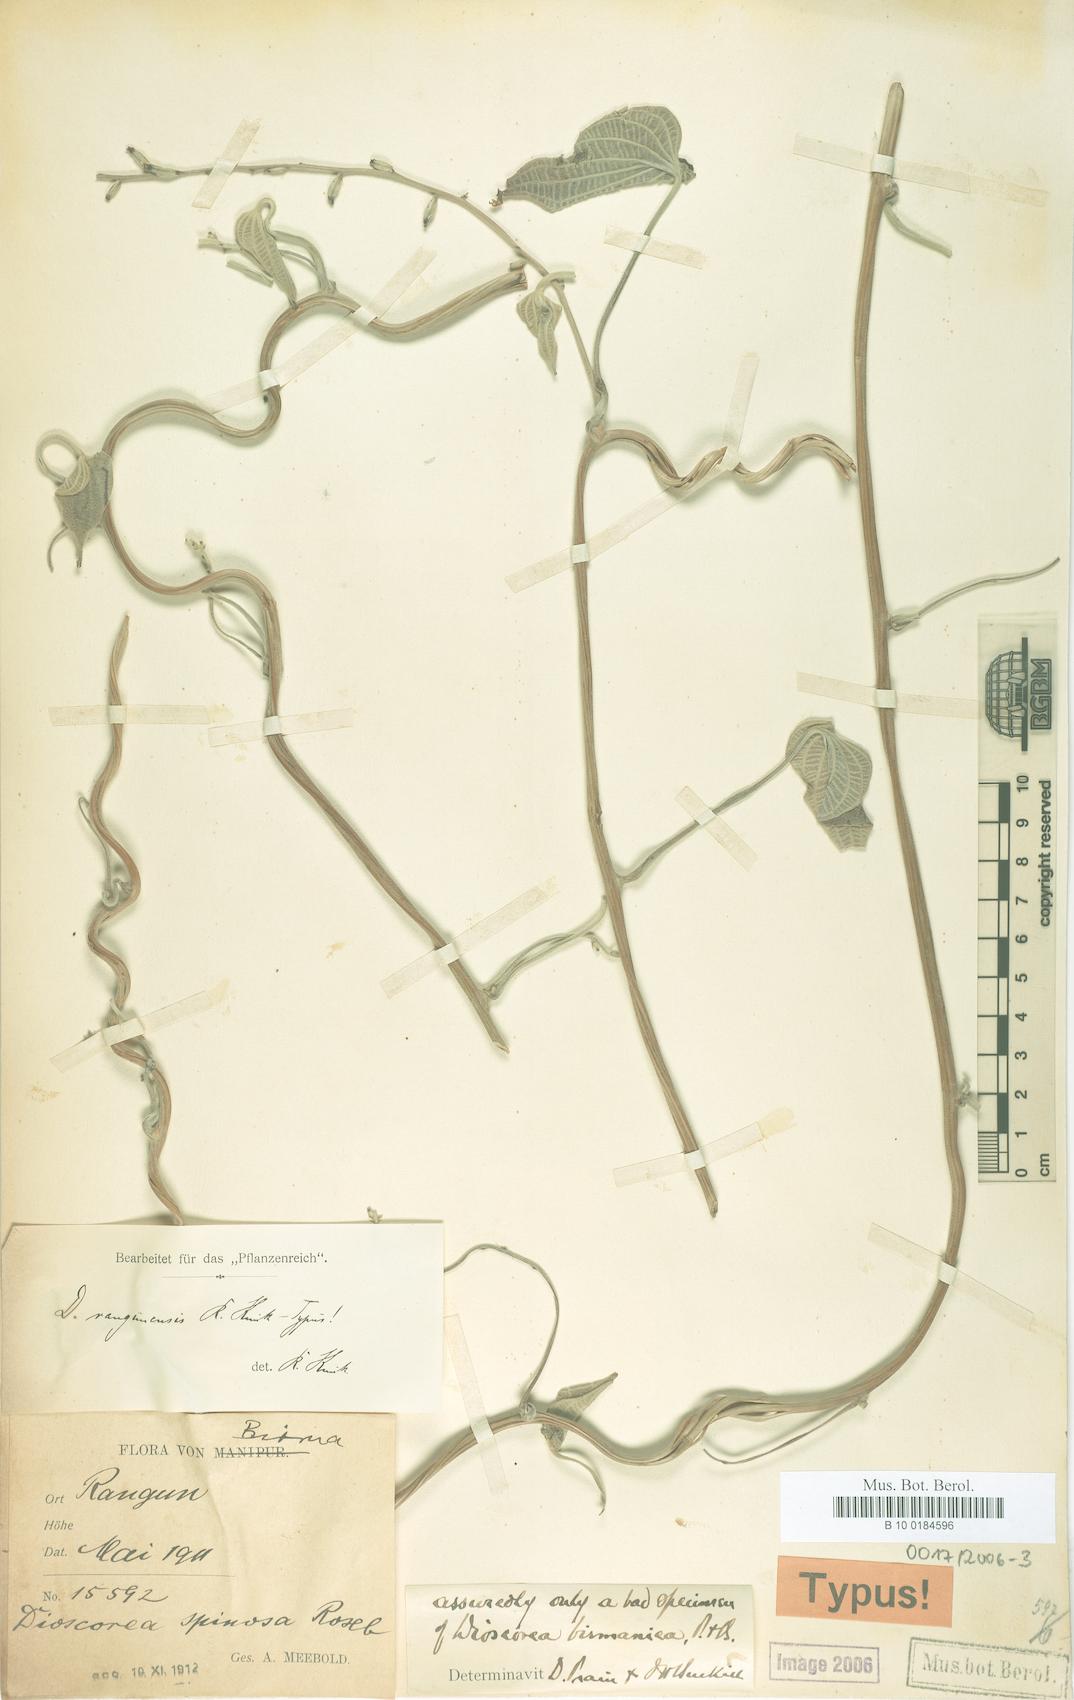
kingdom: Plantae
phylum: Tracheophyta
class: Liliopsida
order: Dioscoreales
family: Dioscoreaceae
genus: Dioscorea
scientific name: Dioscorea birmanica
